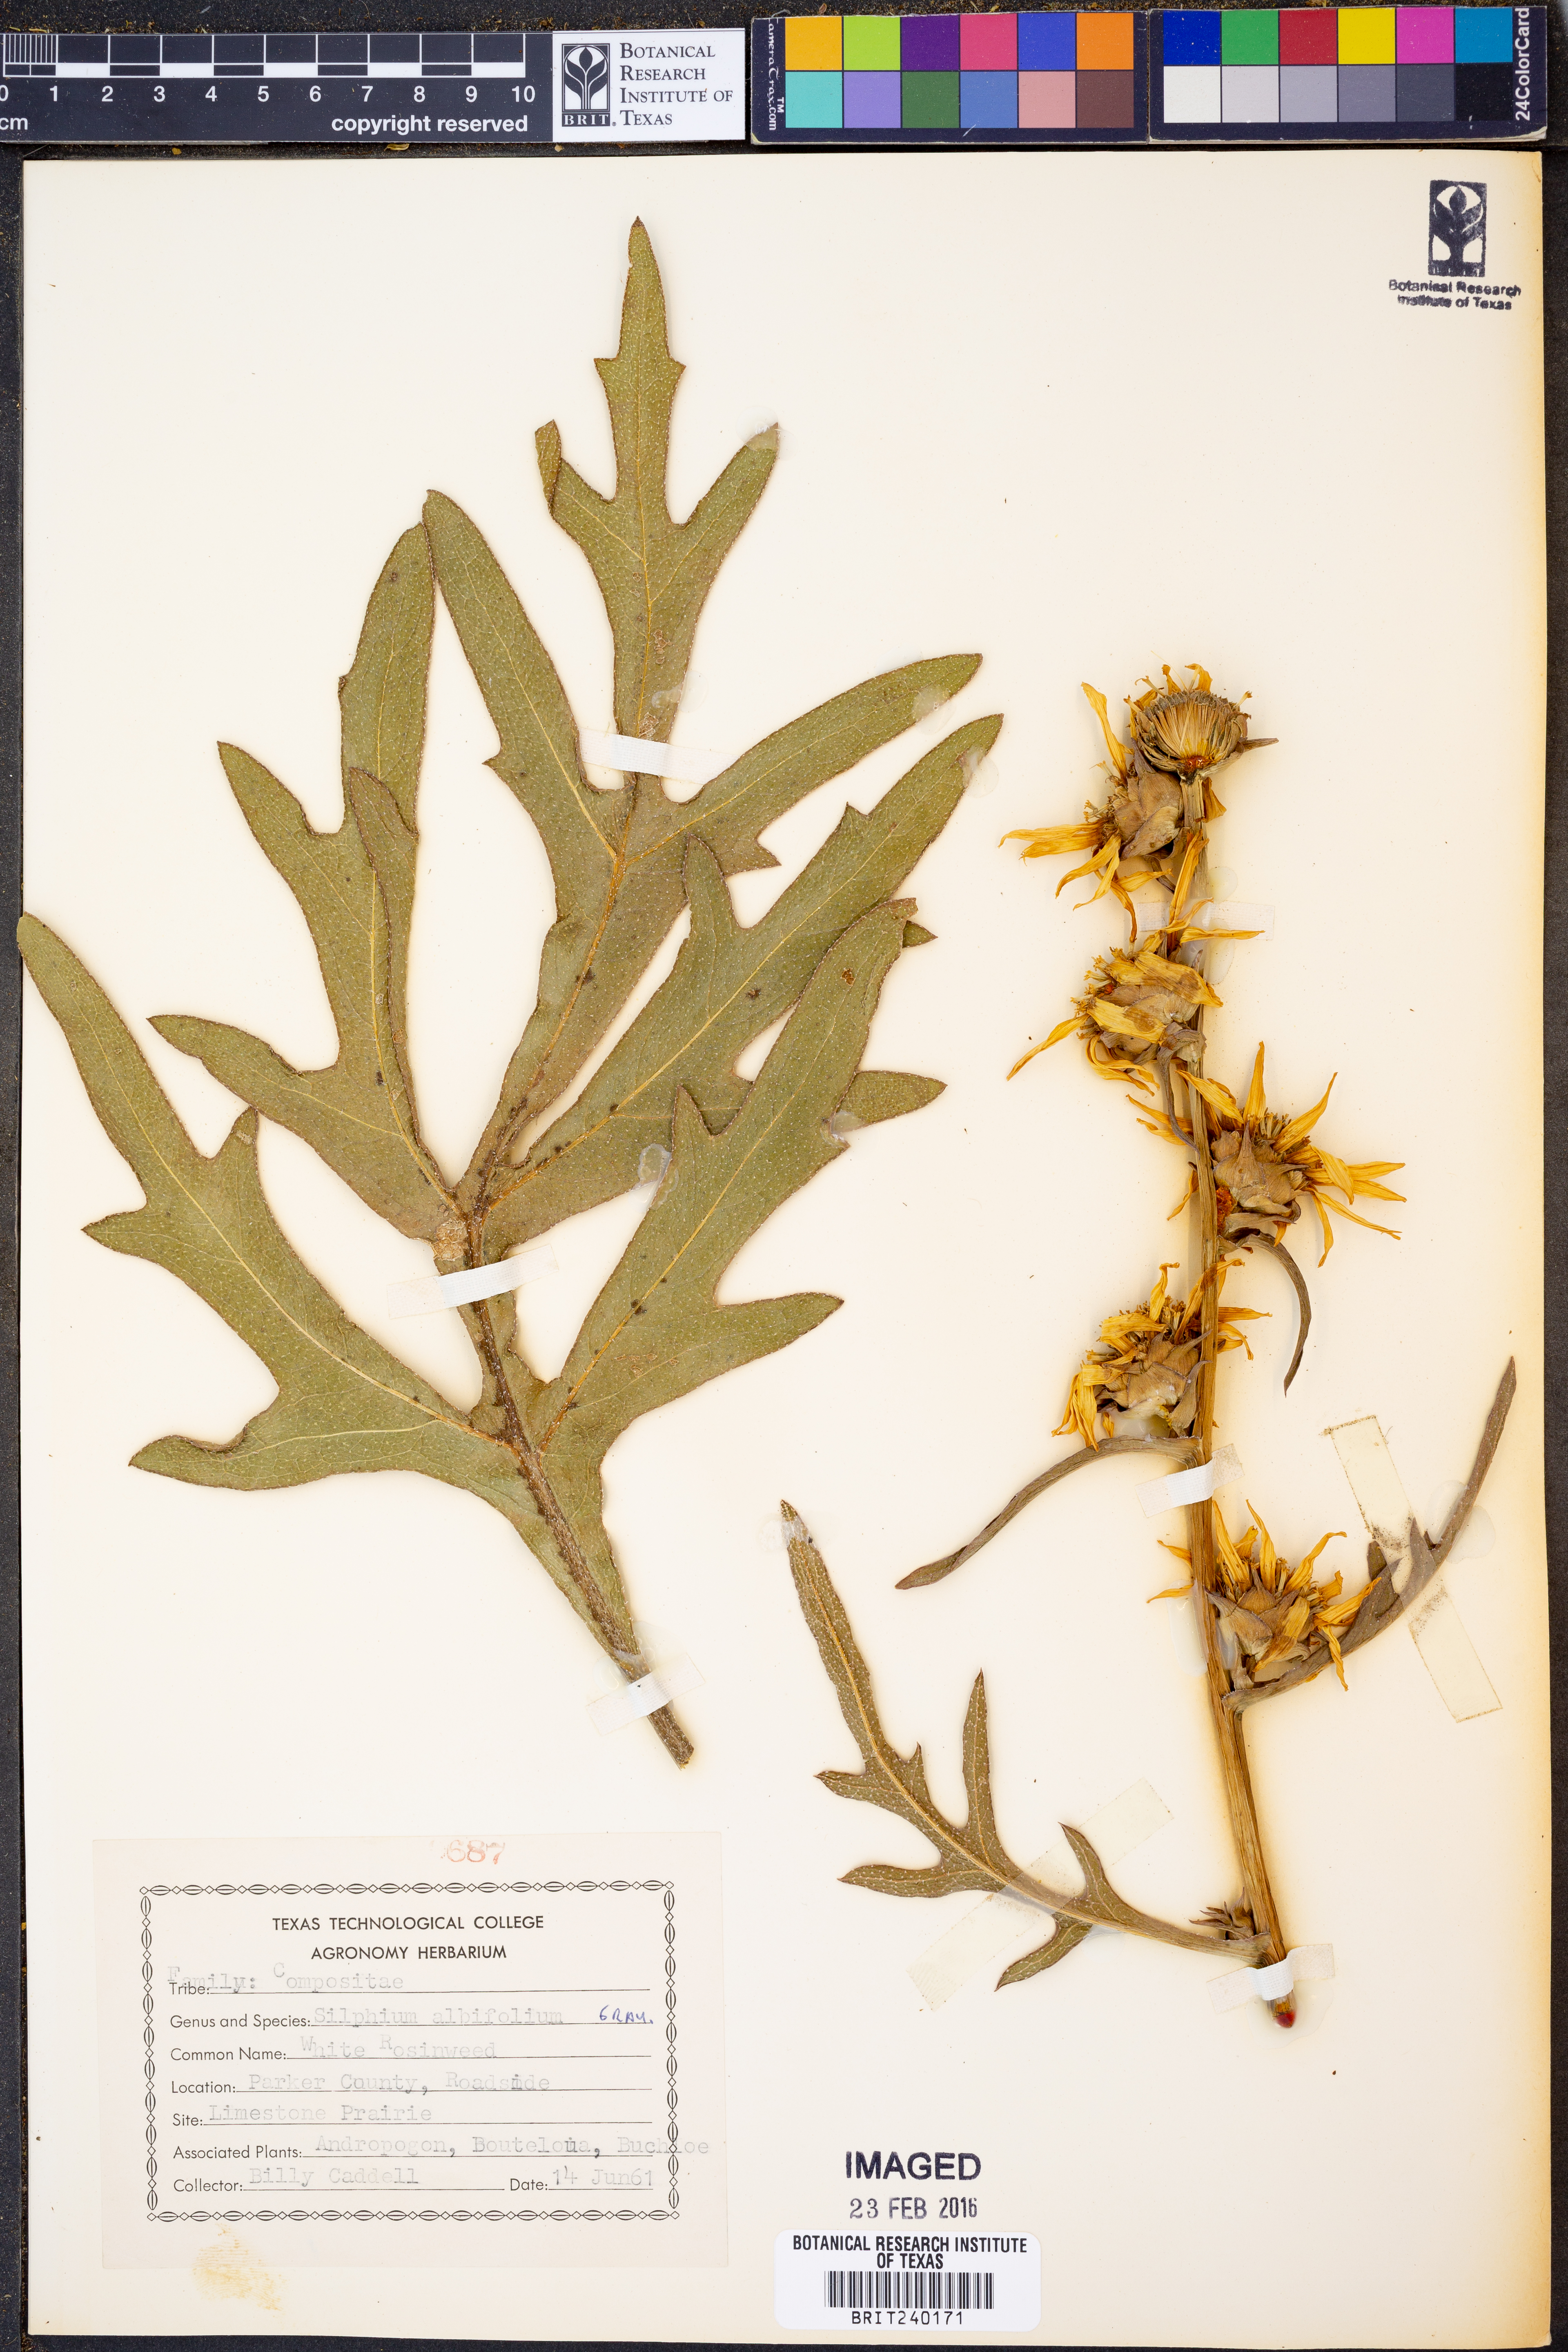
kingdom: Plantae
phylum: Tracheophyta
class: Magnoliopsida
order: Asterales
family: Asteraceae
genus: Silphium
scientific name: Silphium albiflorum
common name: White rosinweed
